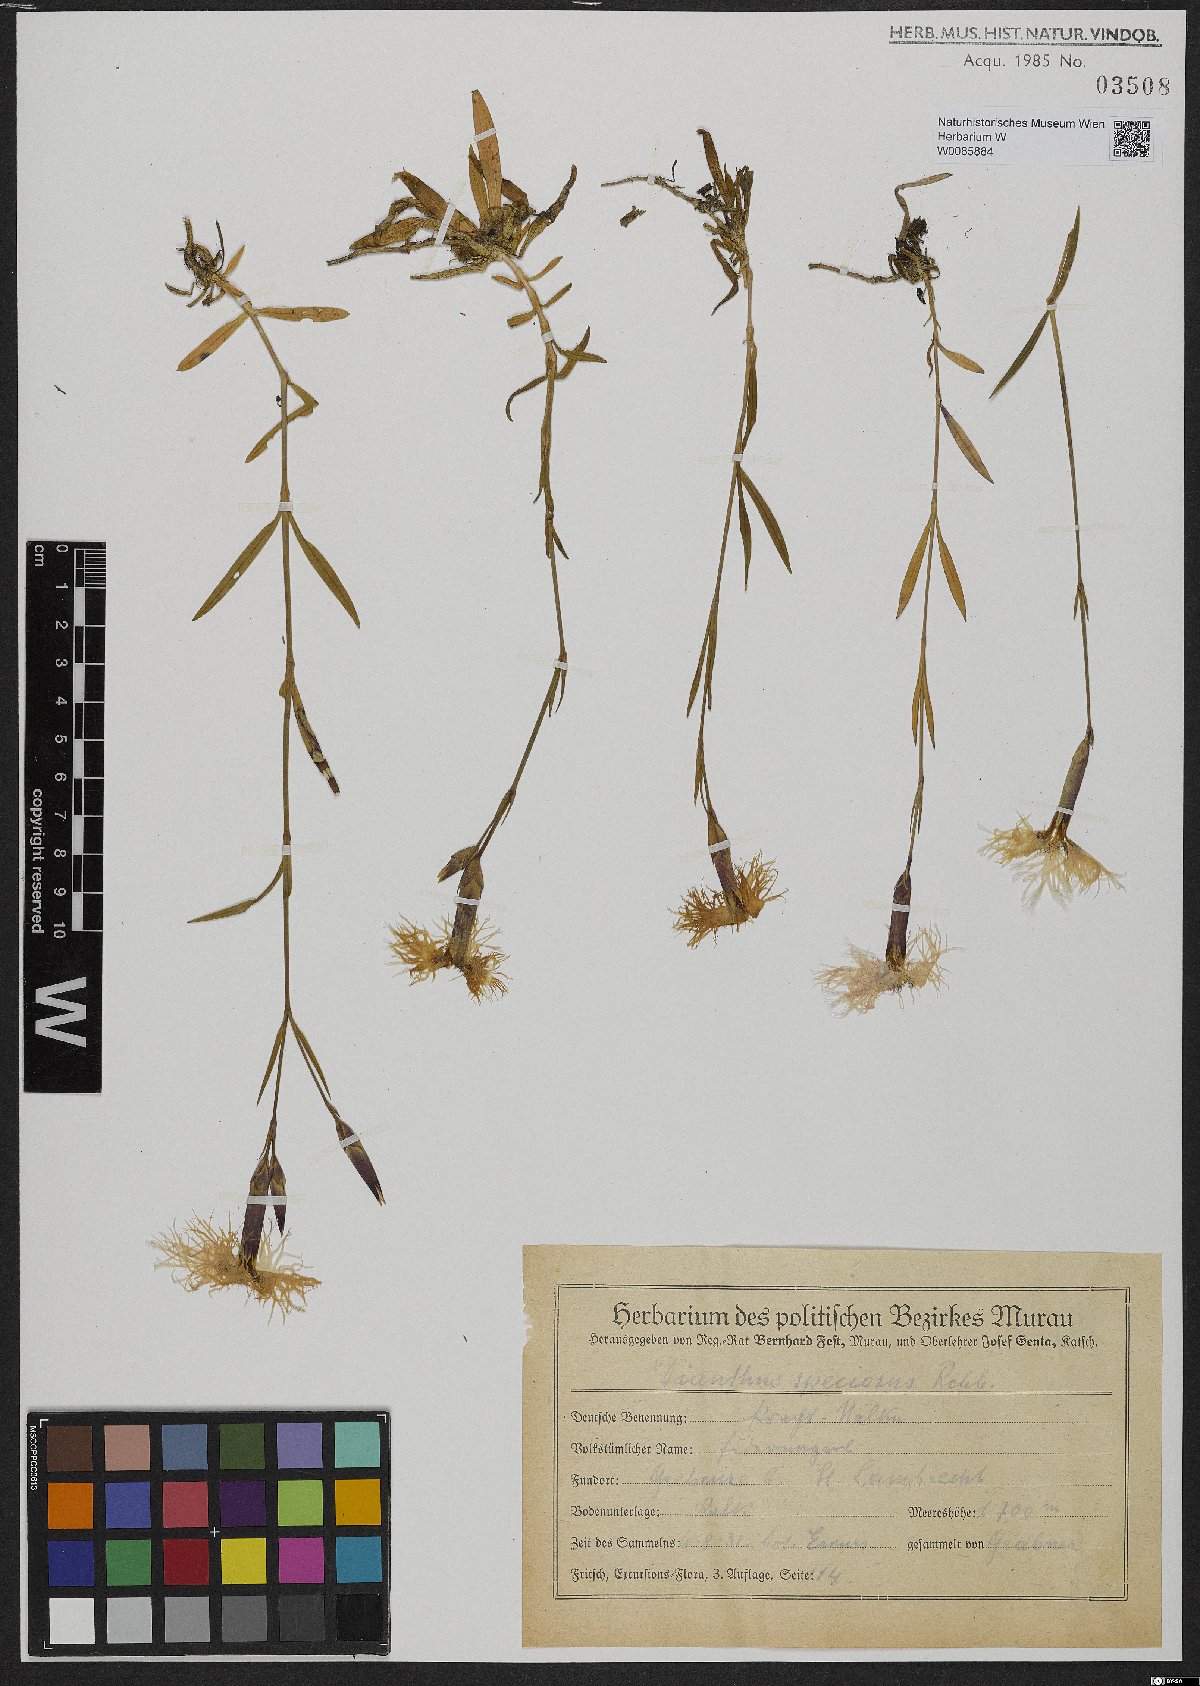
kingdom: Plantae
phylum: Tracheophyta
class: Magnoliopsida
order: Caryophyllales
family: Caryophyllaceae
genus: Dianthus
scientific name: Dianthus superbus
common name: Fringed pink
